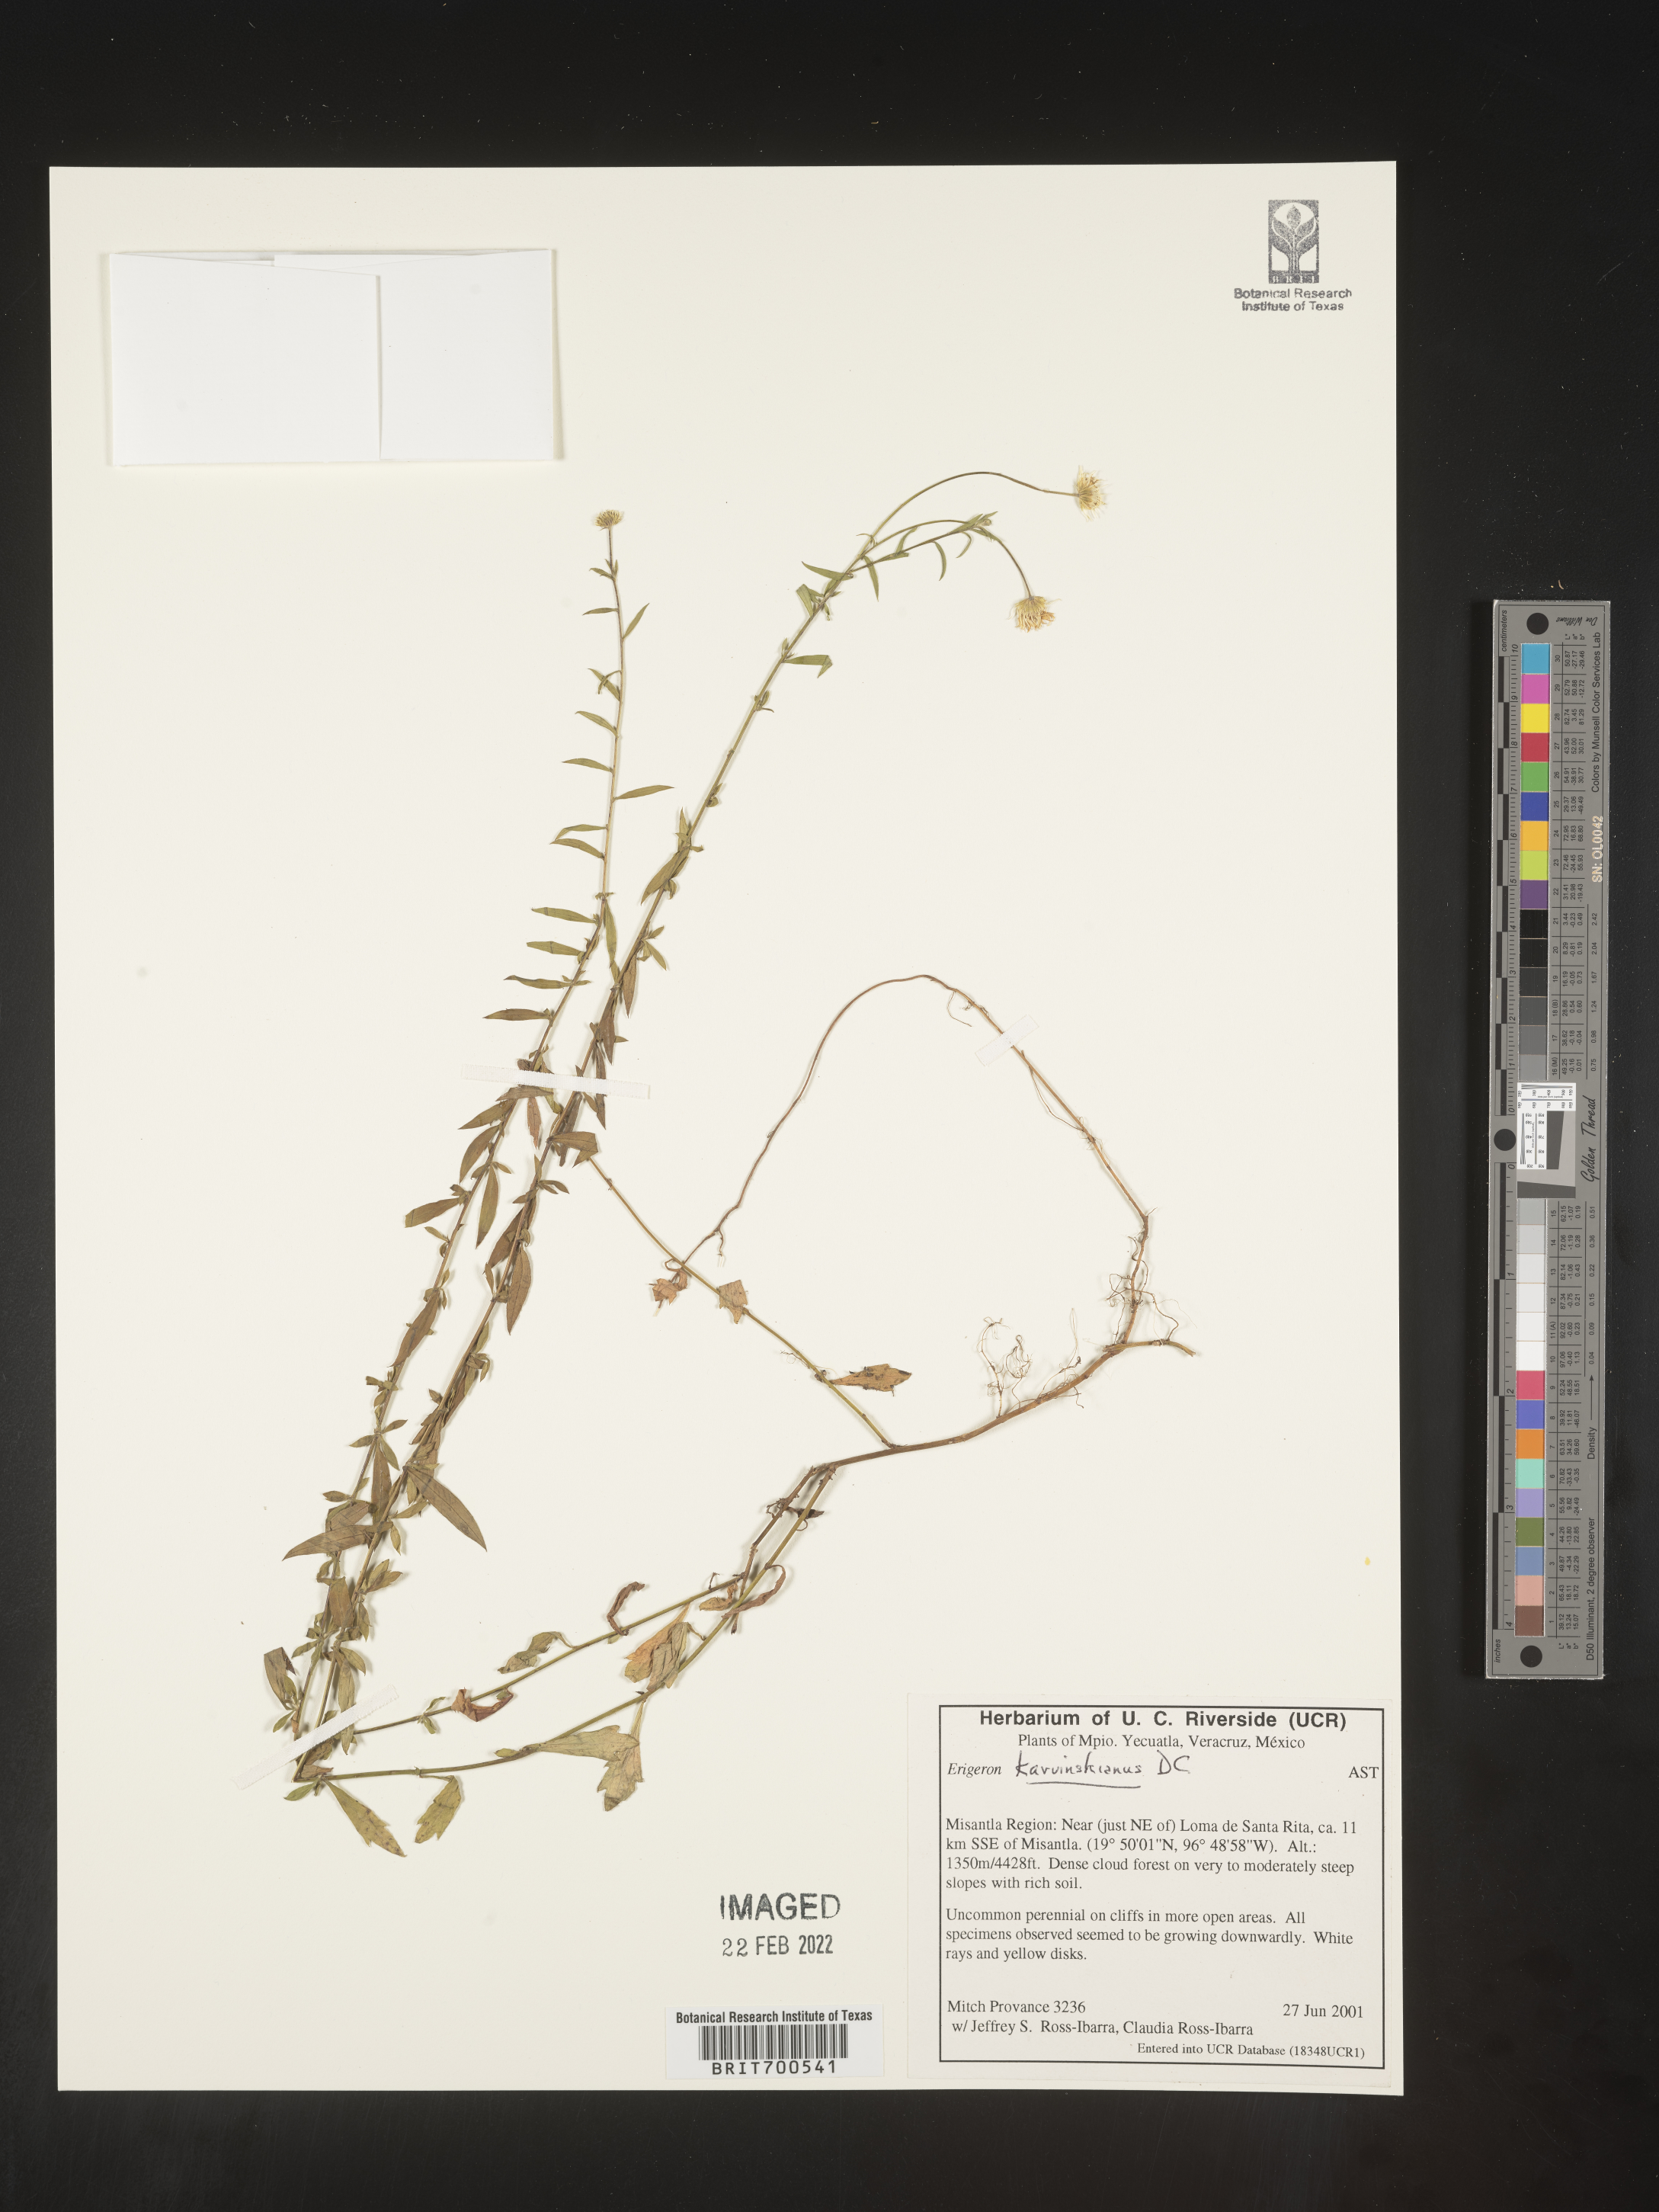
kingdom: Plantae
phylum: Tracheophyta
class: Magnoliopsida
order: Asterales
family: Asteraceae
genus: Erigeron
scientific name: Erigeron karvinskianus
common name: Mexican fleabane
